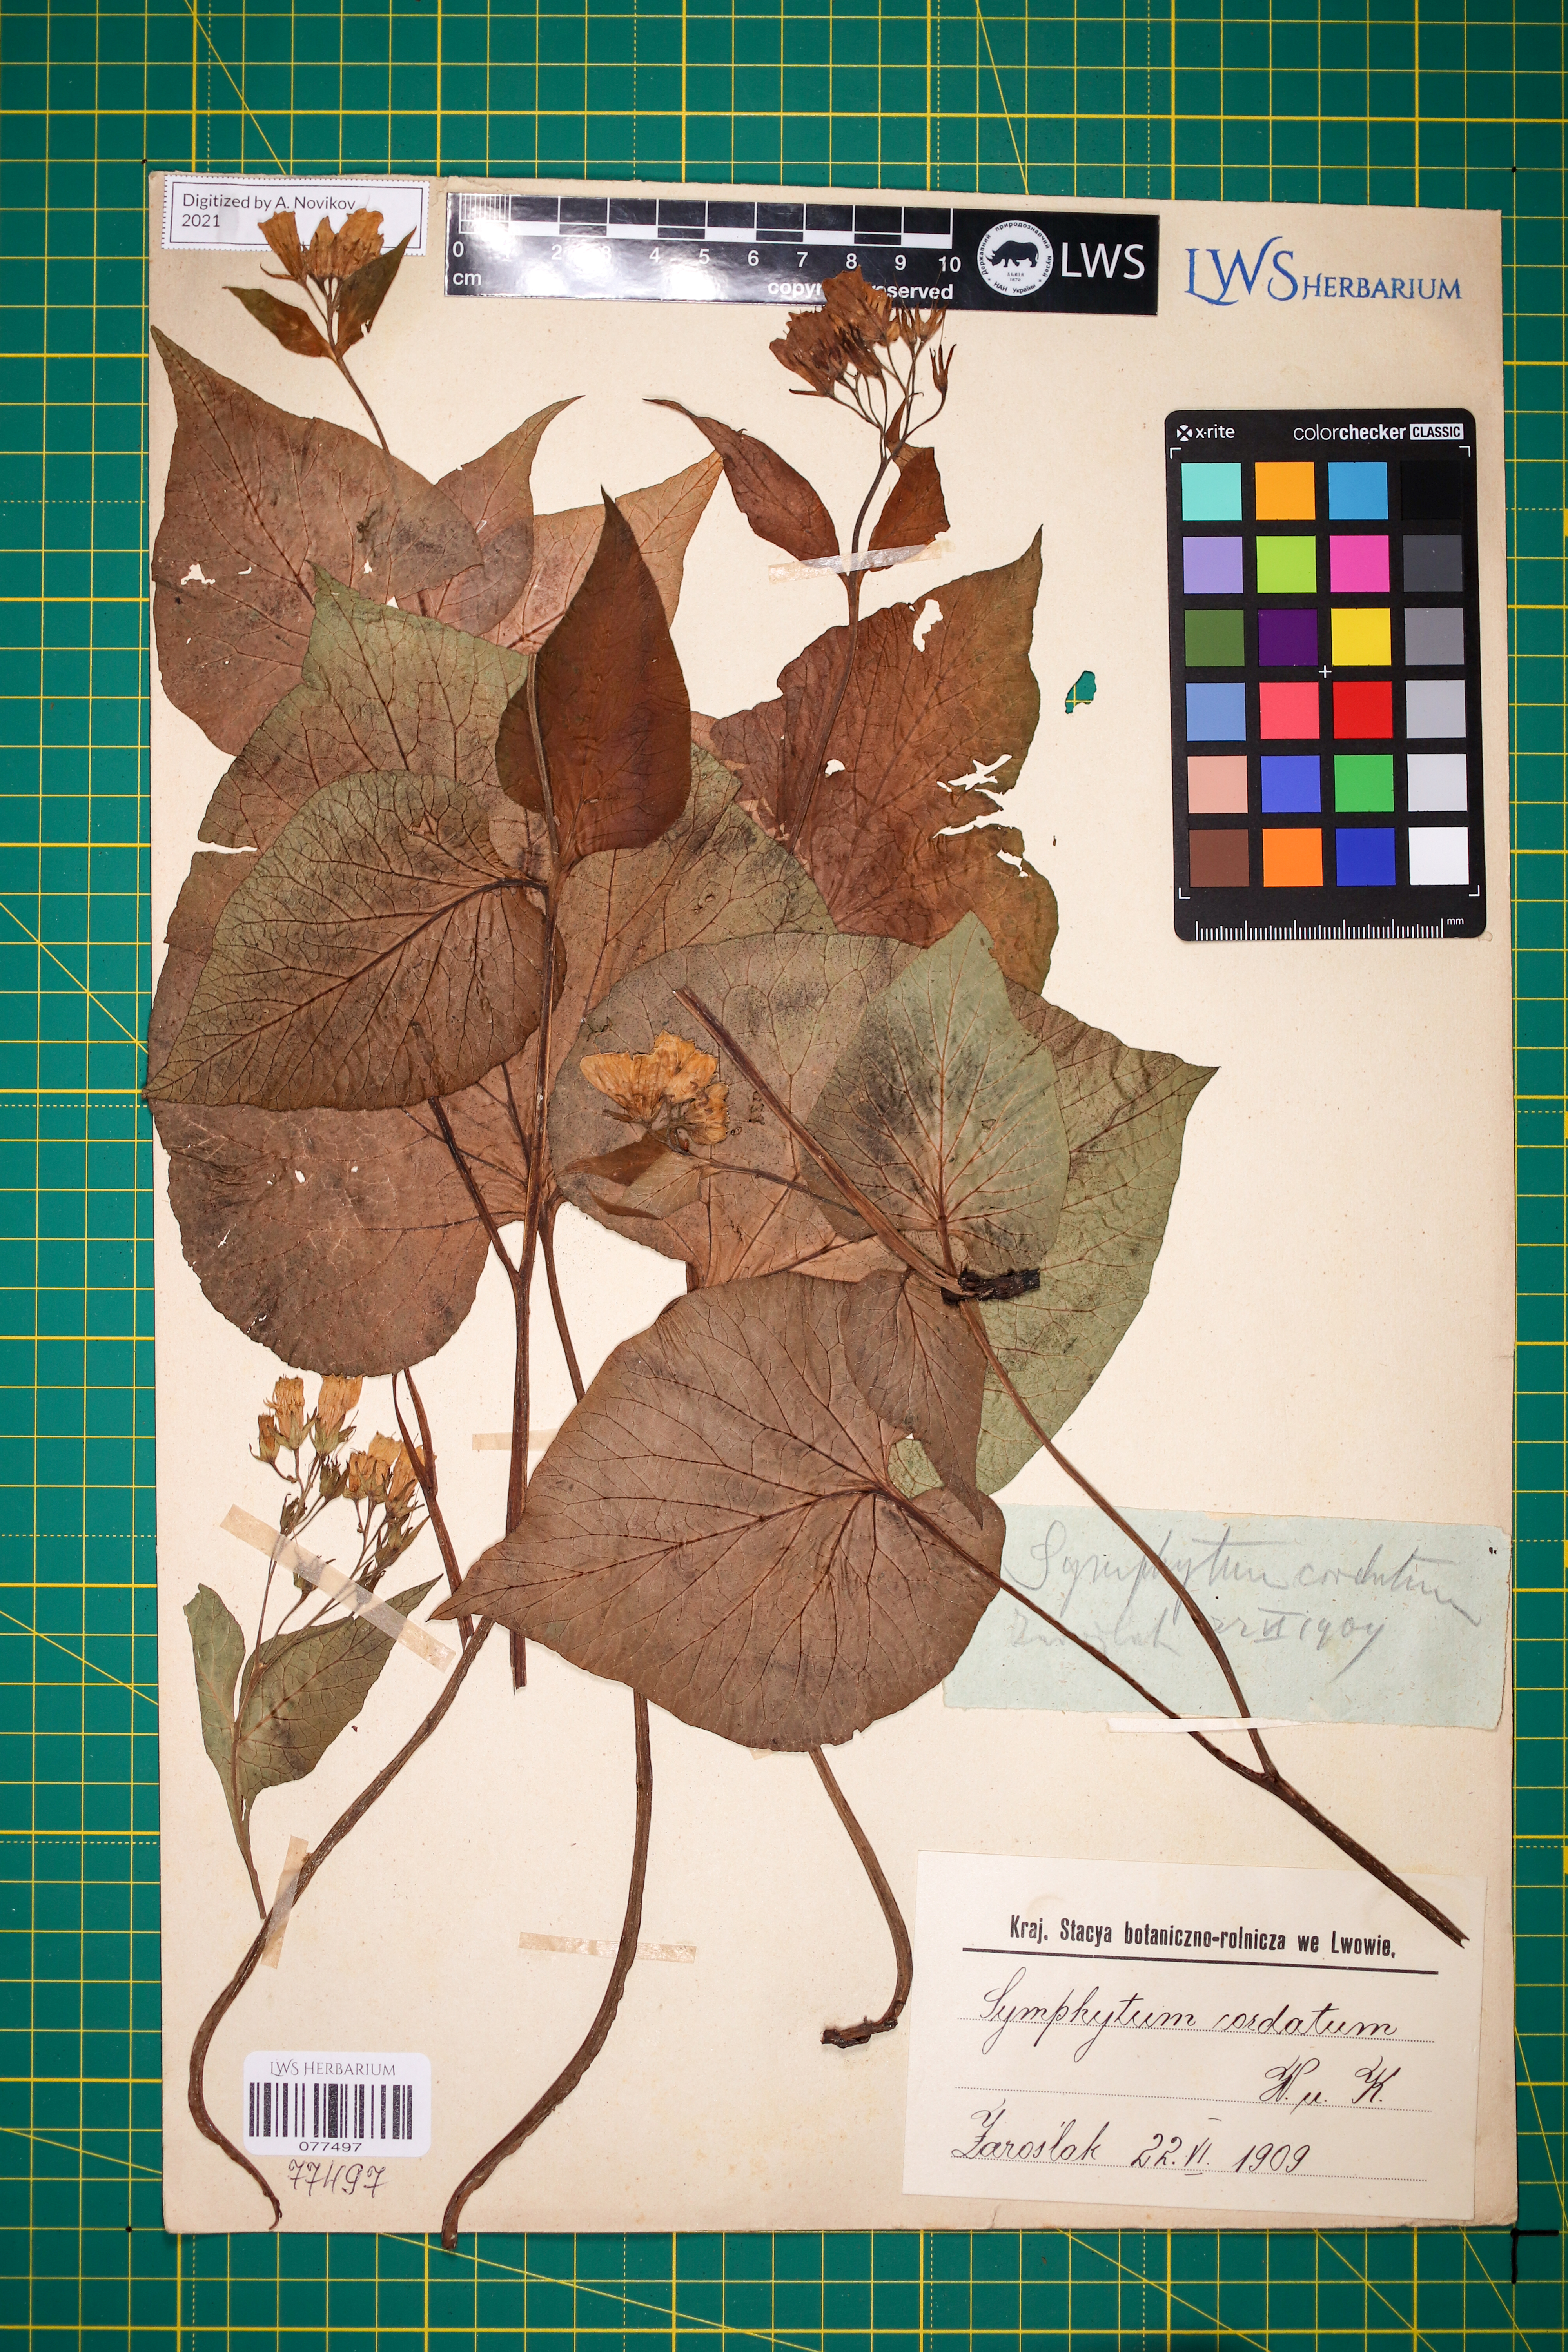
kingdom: Plantae
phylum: Tracheophyta
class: Magnoliopsida
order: Boraginales
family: Boraginaceae
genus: Symphytum
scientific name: Symphytum cordatum
